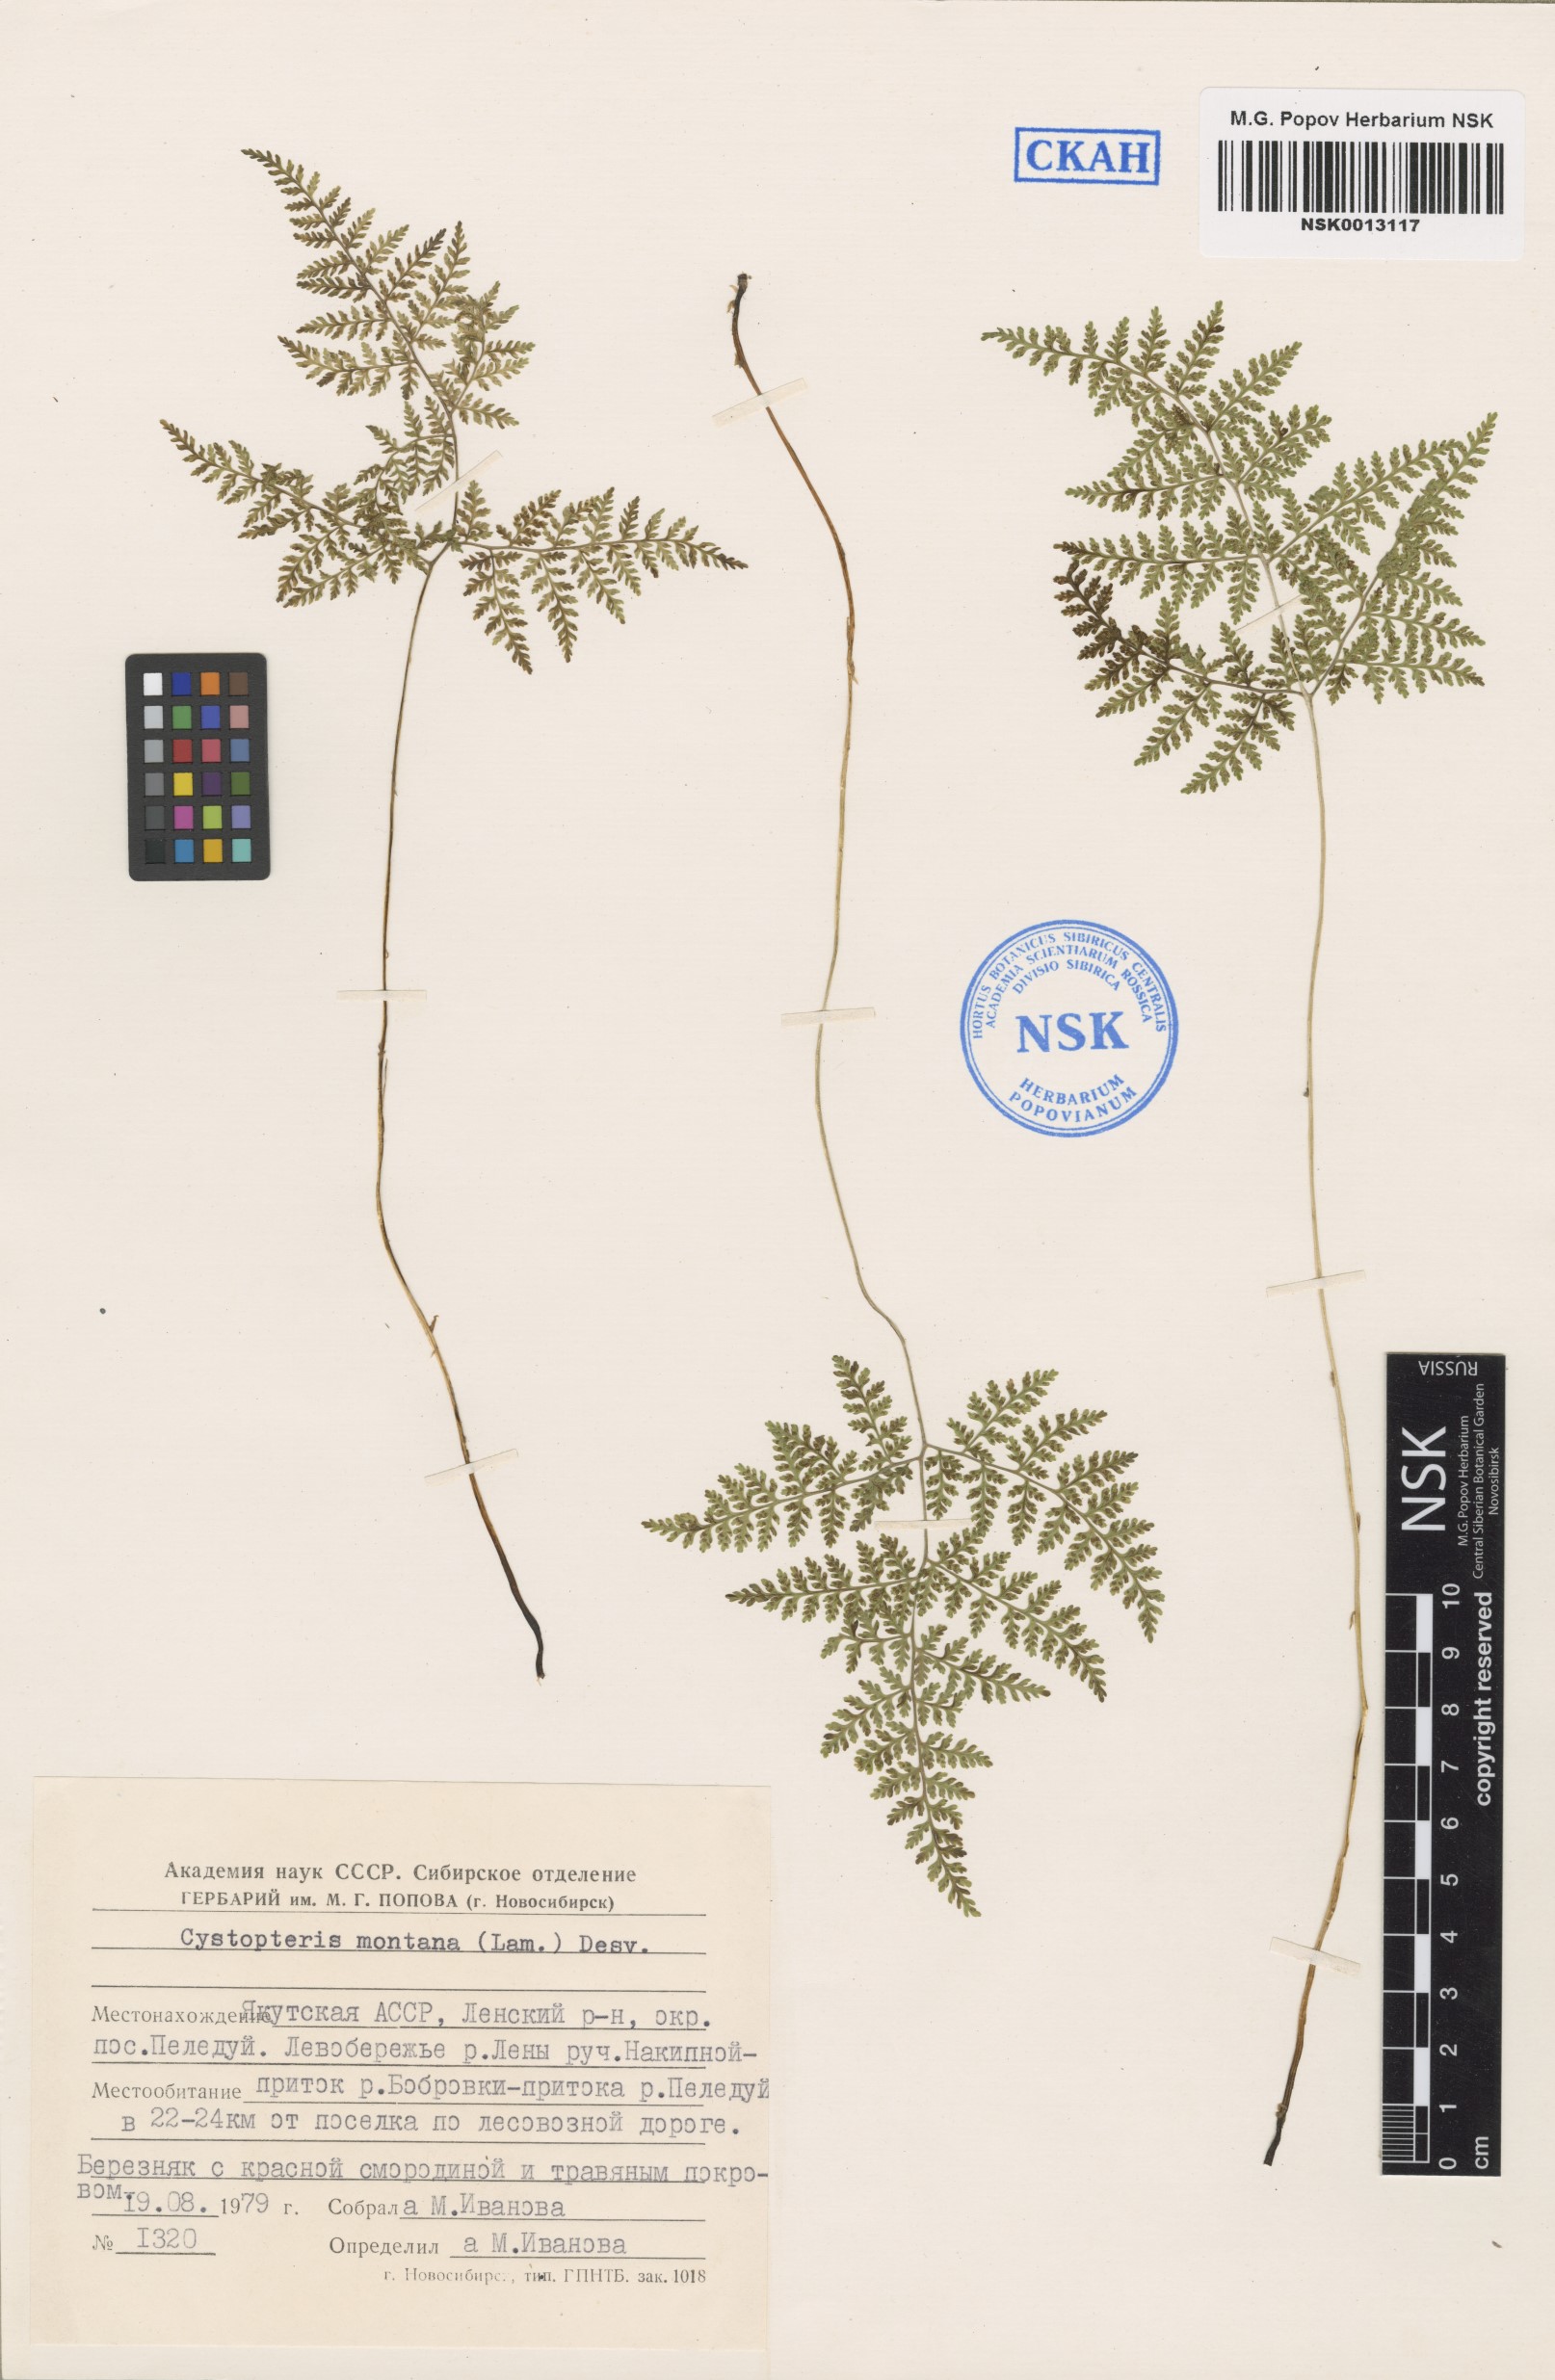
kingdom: Plantae
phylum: Tracheophyta
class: Polypodiopsida
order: Polypodiales
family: Cystopteridaceae
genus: Cystopteris
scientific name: Cystopteris montana
